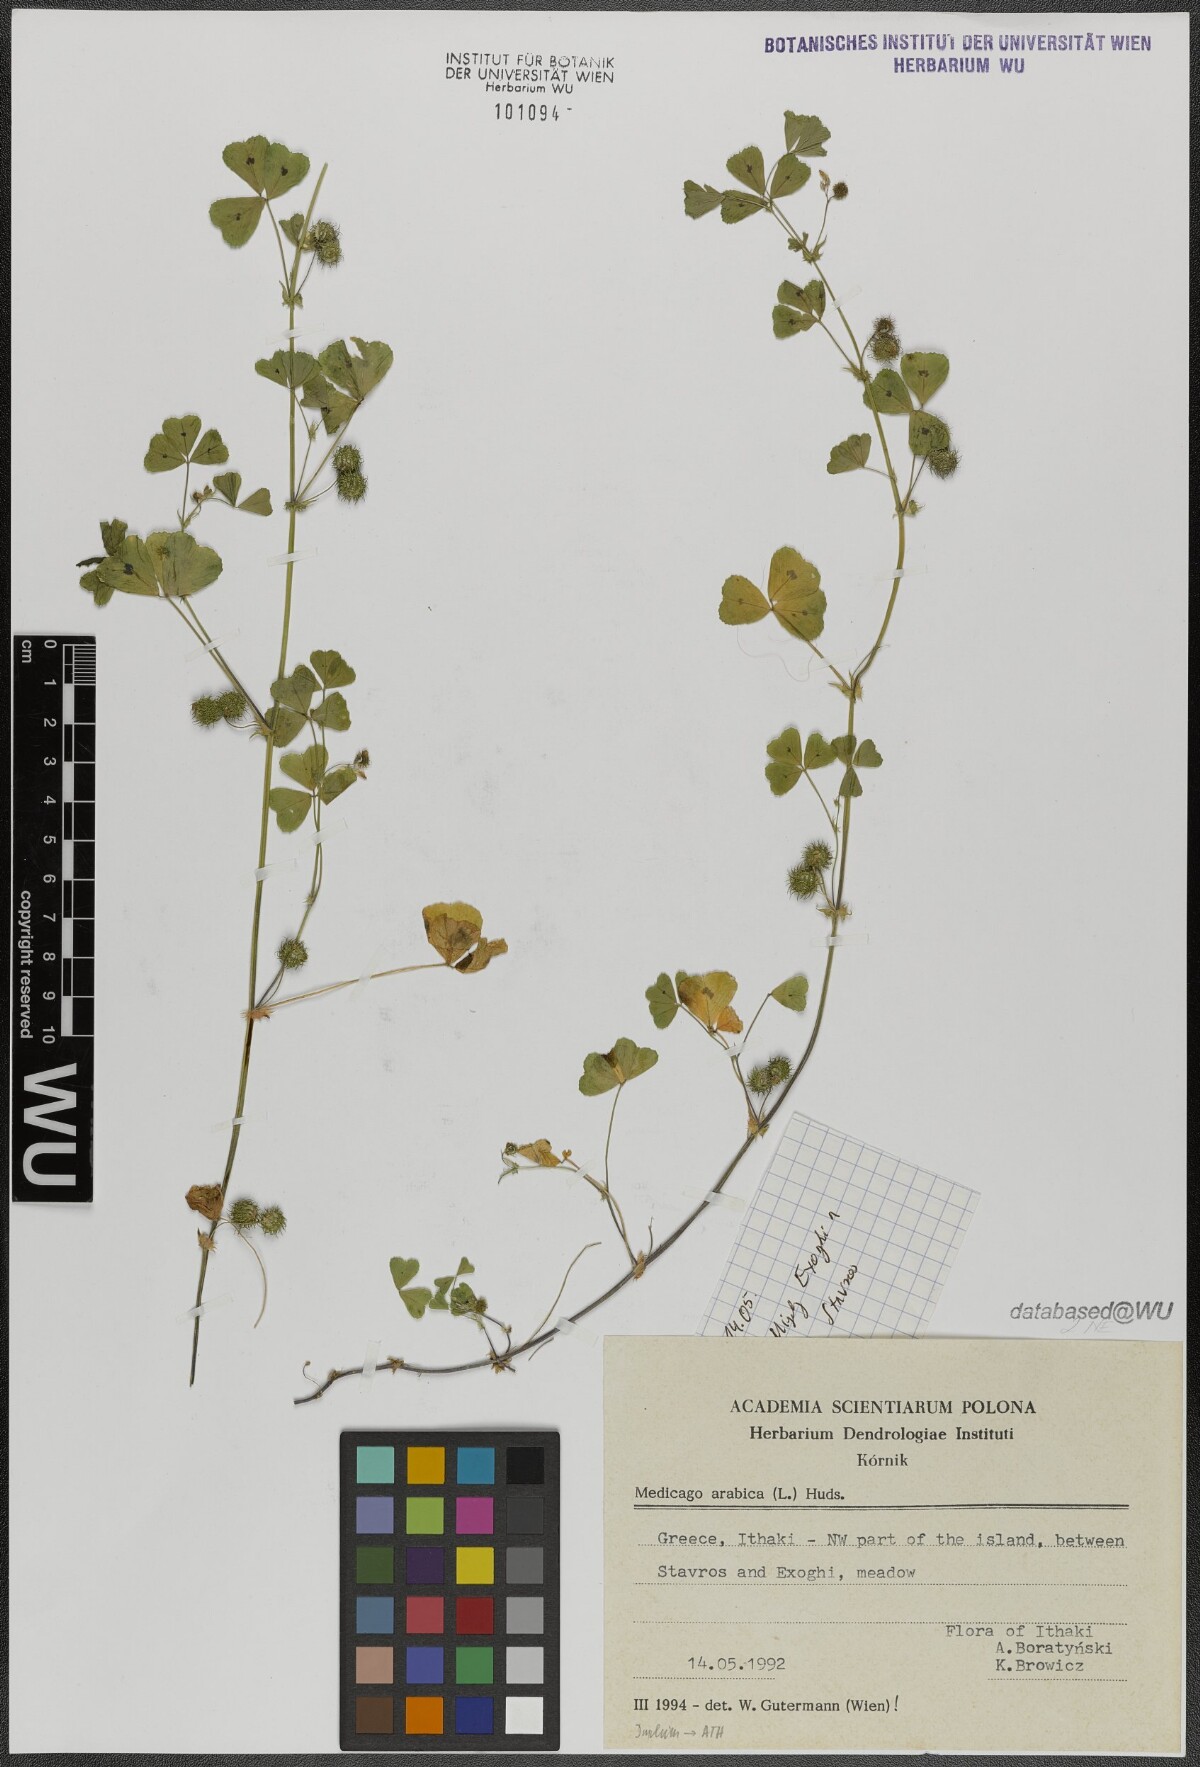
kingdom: Plantae
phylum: Tracheophyta
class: Magnoliopsida
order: Fabales
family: Fabaceae
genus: Medicago
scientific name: Medicago arabica
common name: Spotted medick
